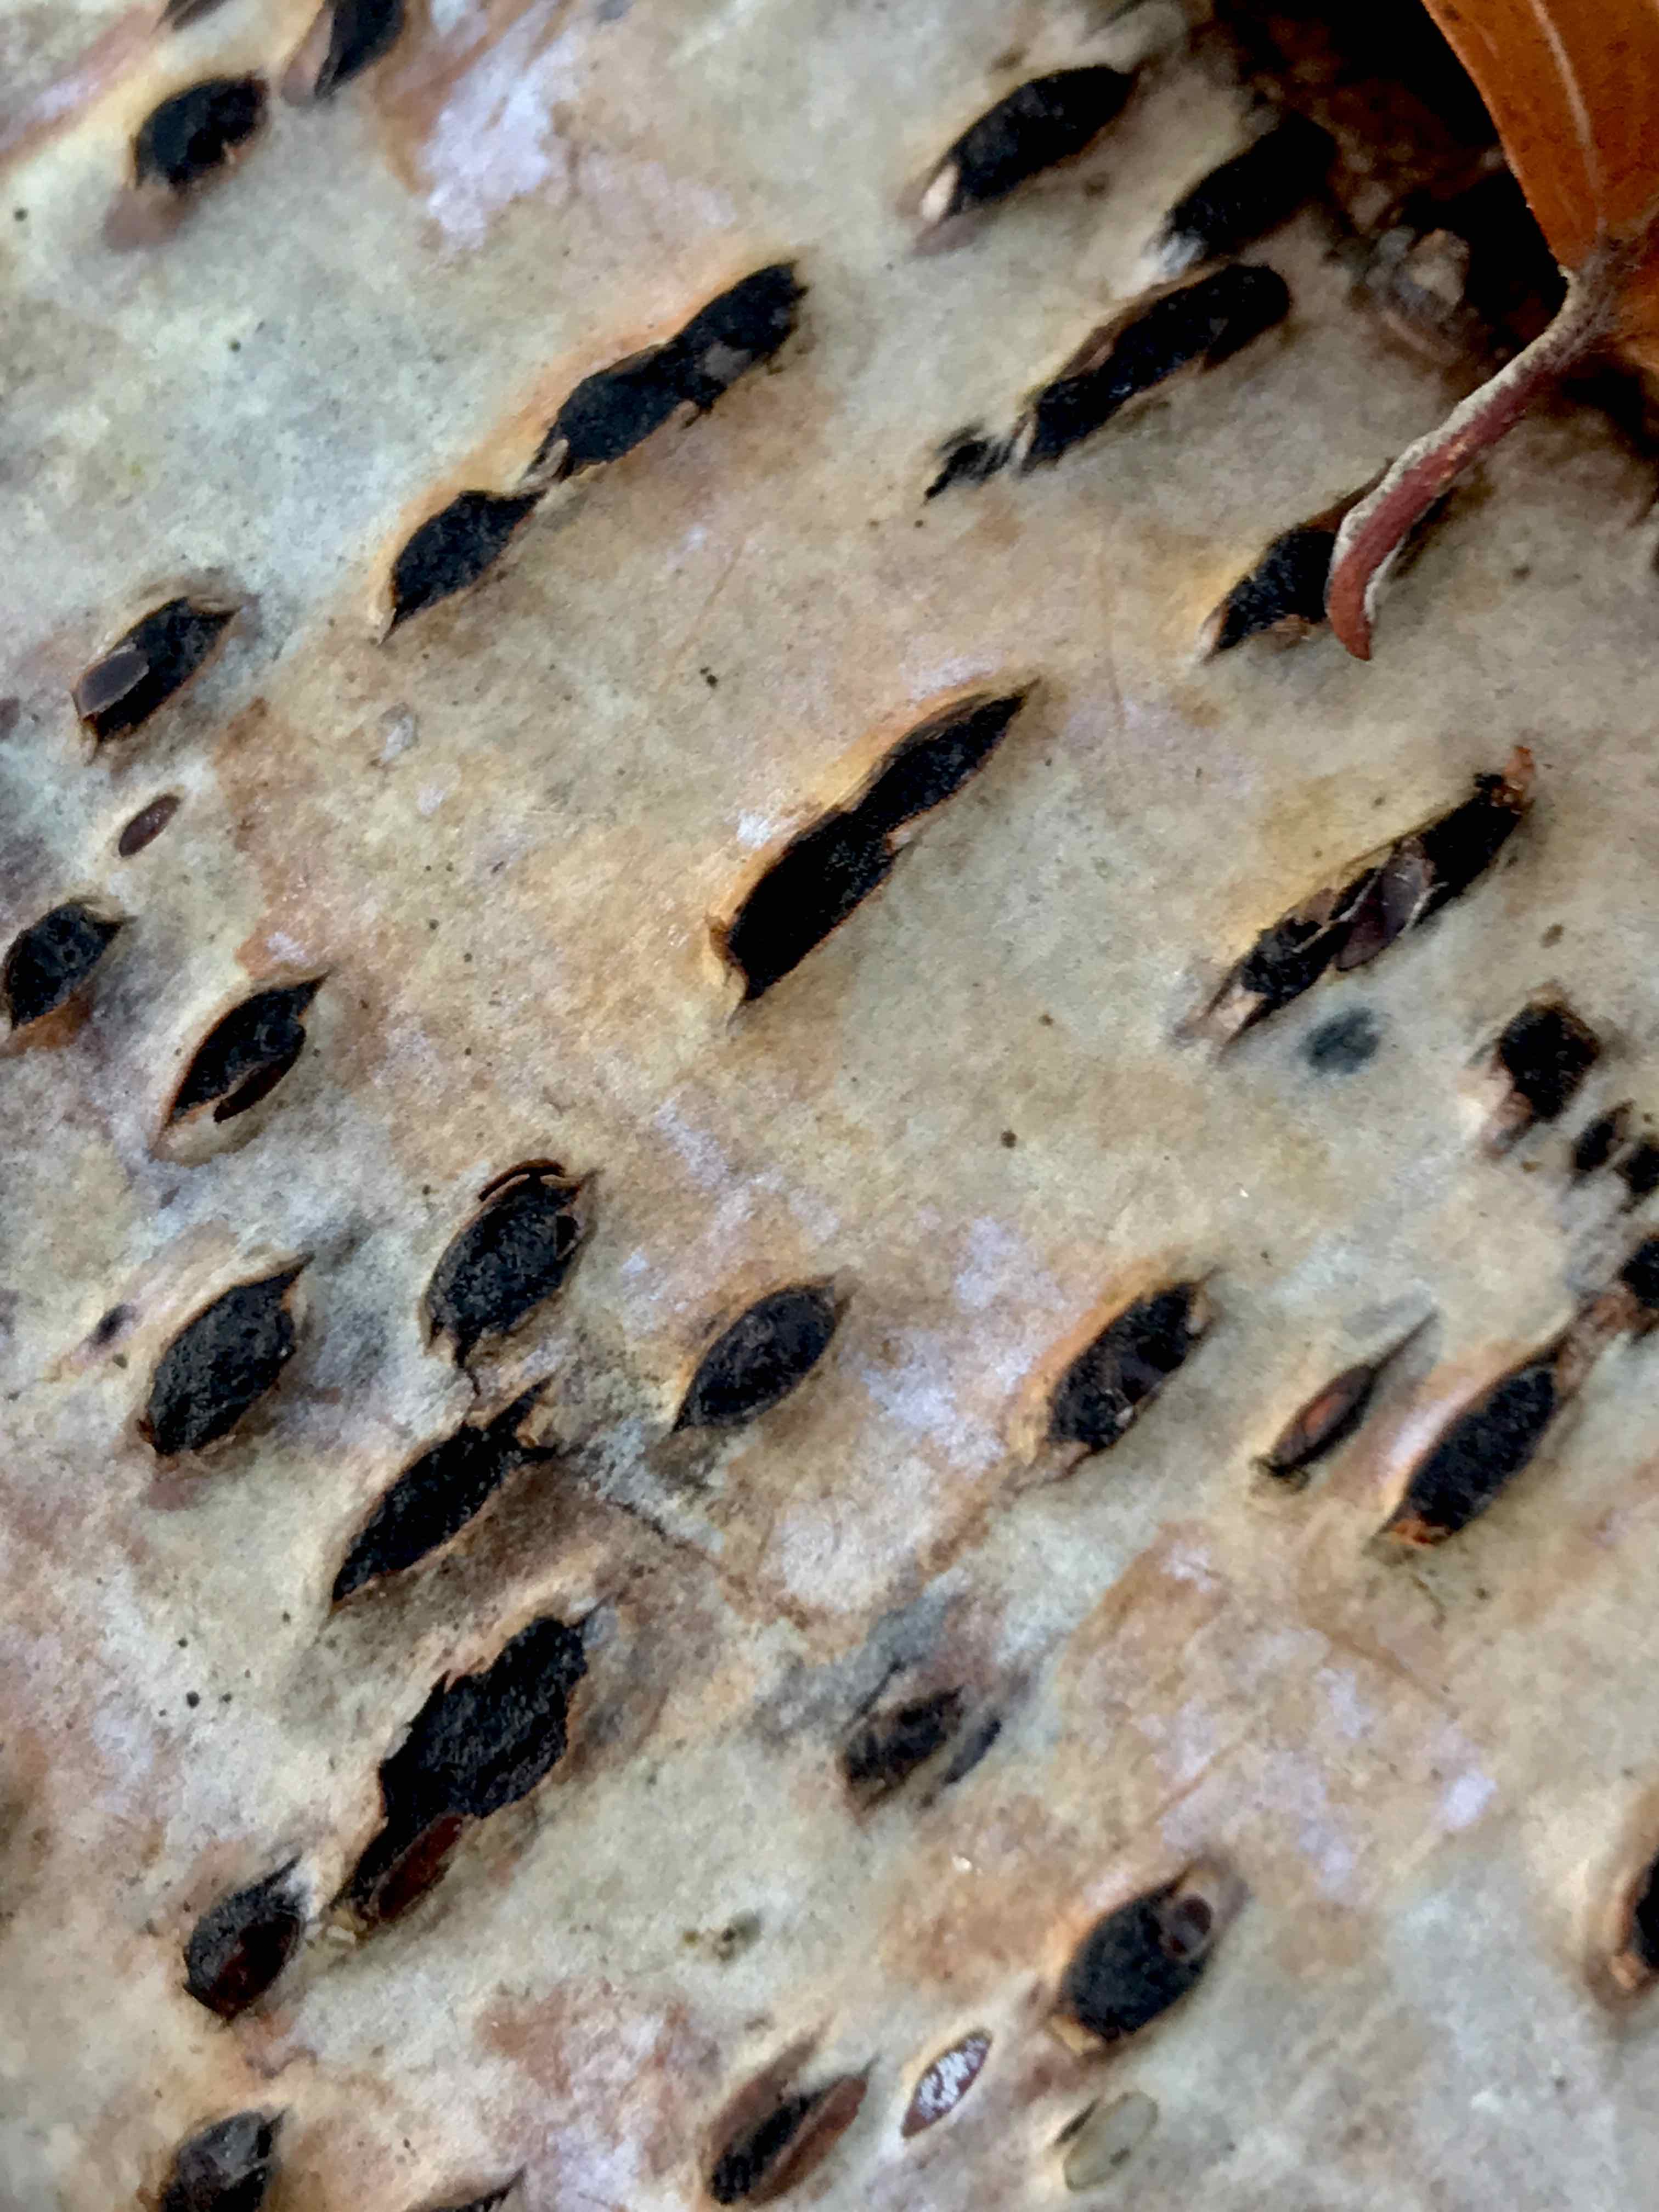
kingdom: Fungi
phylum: Ascomycota
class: Sordariomycetes
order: Xylariales
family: Diatrypaceae
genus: Diatrypella
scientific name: Diatrypella favacea
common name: Birch blackhead
